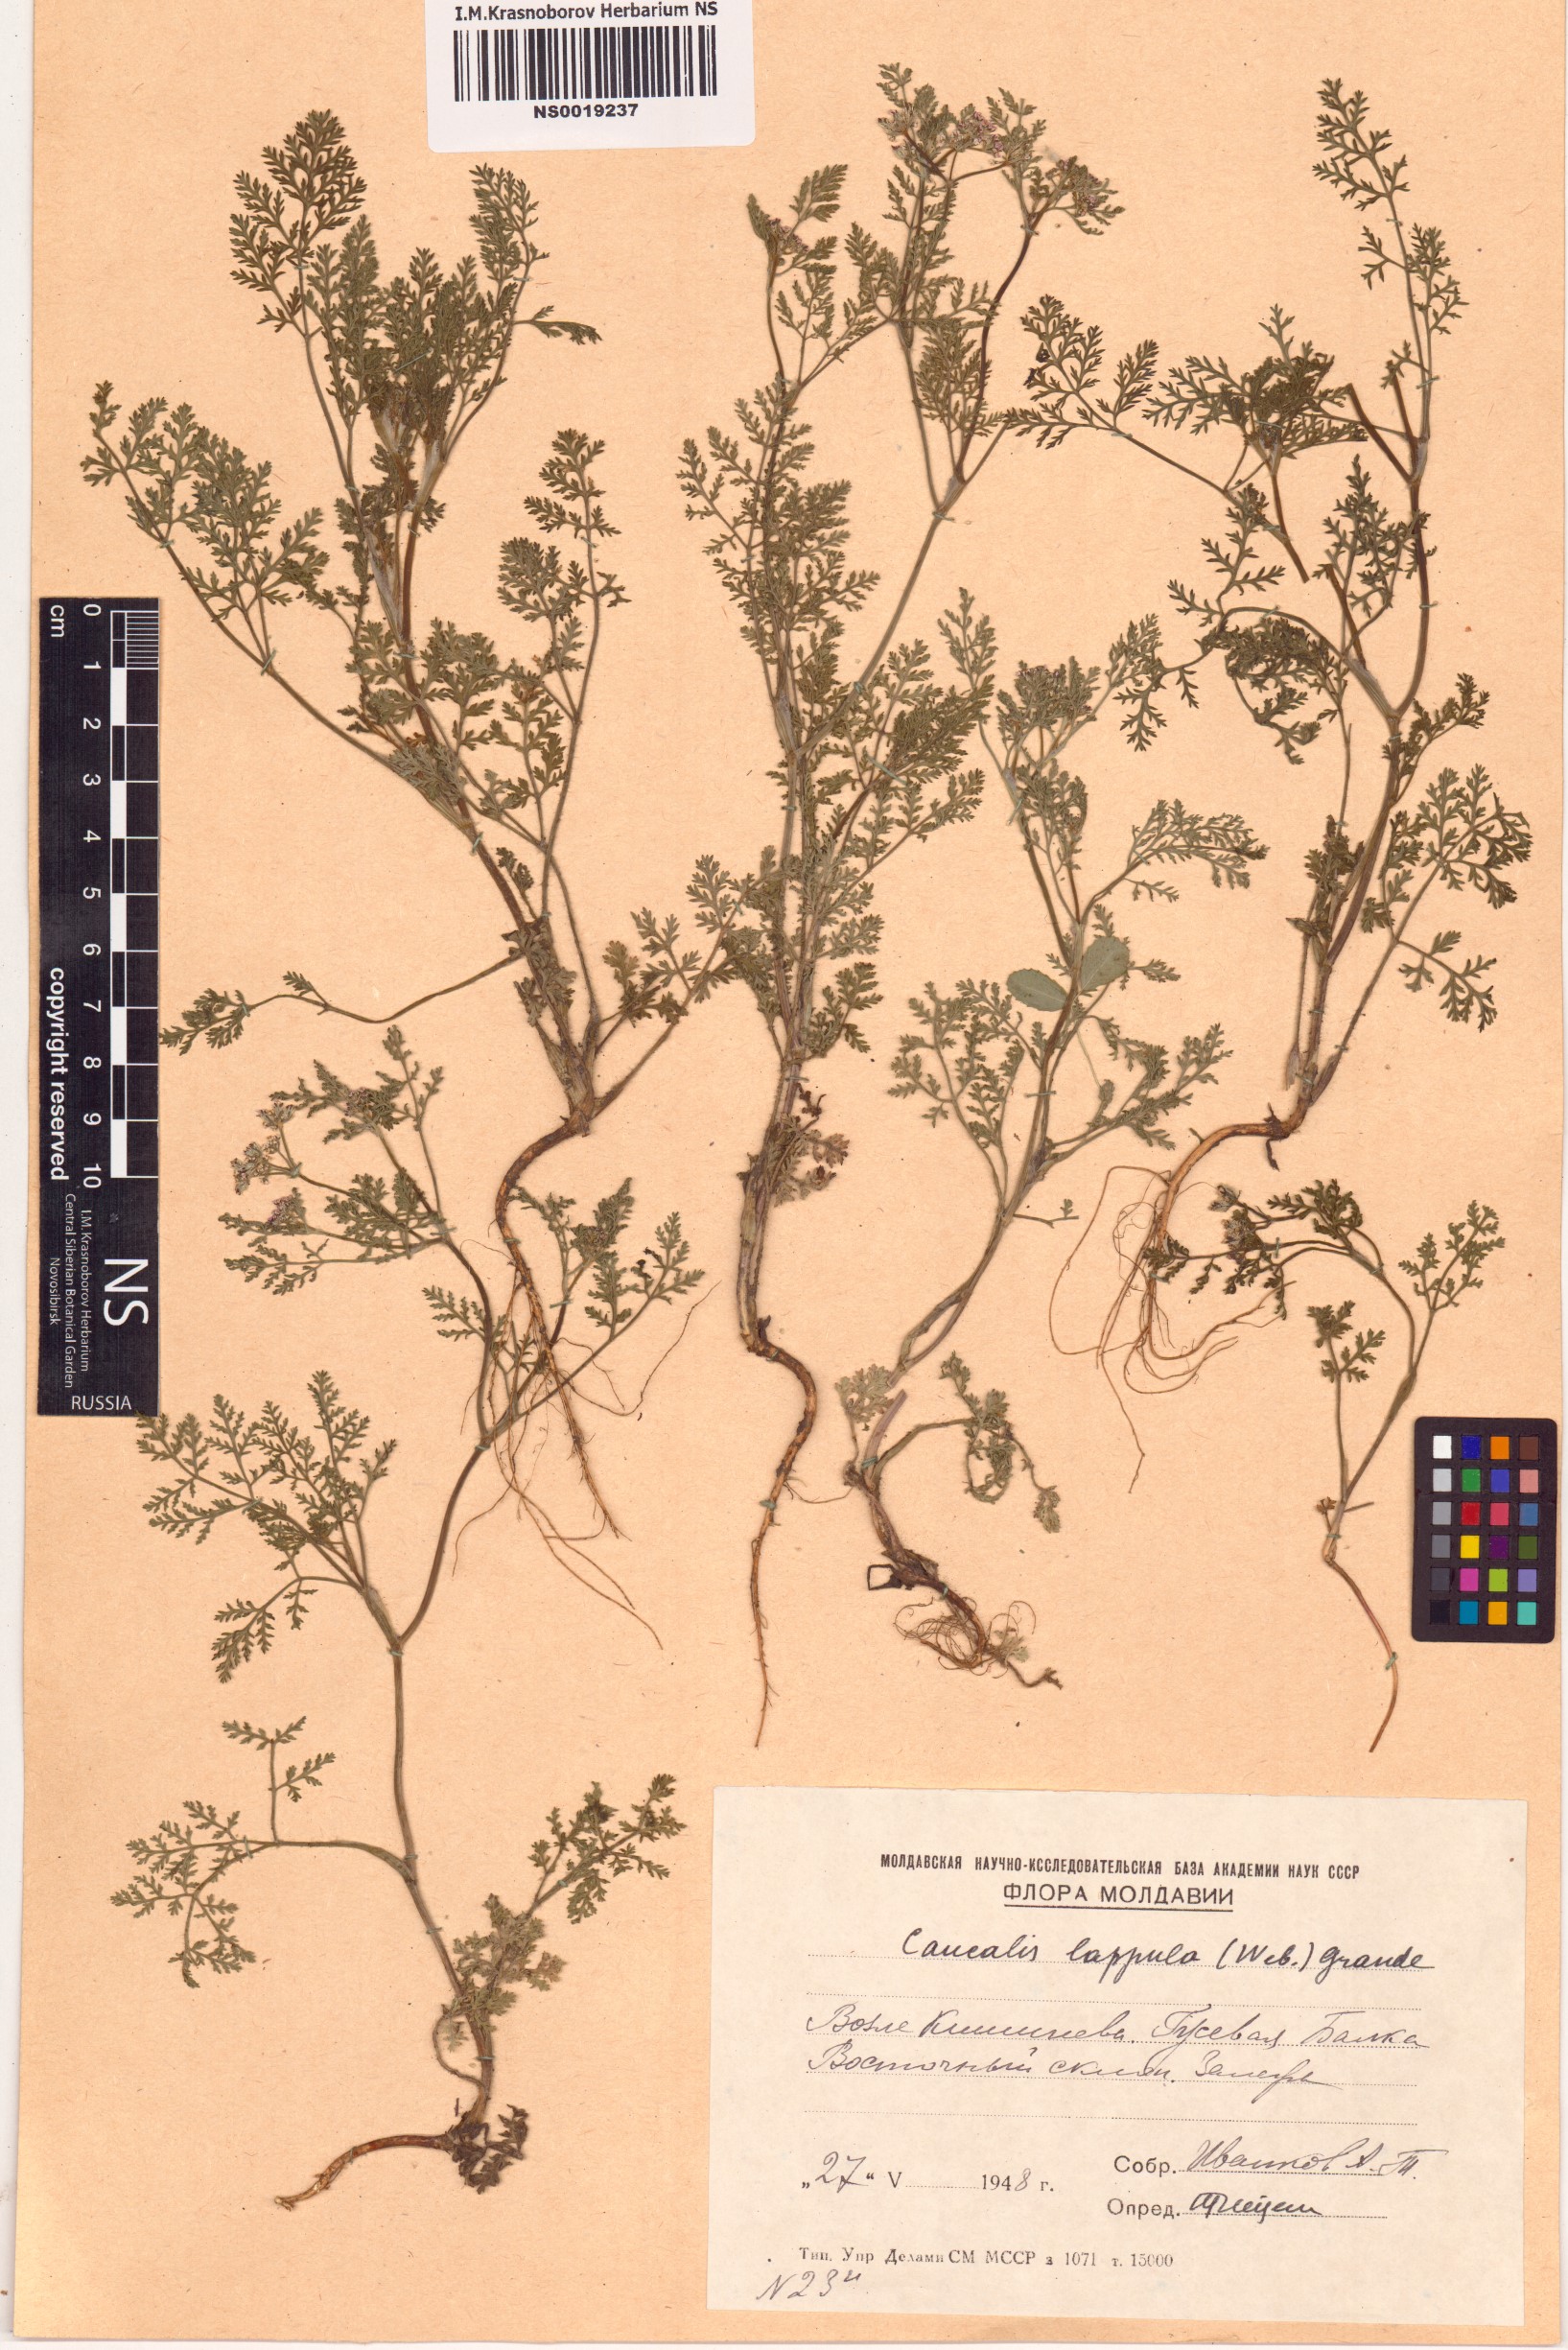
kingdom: Plantae
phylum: Tracheophyta
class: Magnoliopsida
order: Apiales
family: Apiaceae
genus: Caucalis
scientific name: Caucalis platycarpos
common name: Small bur-parsley
